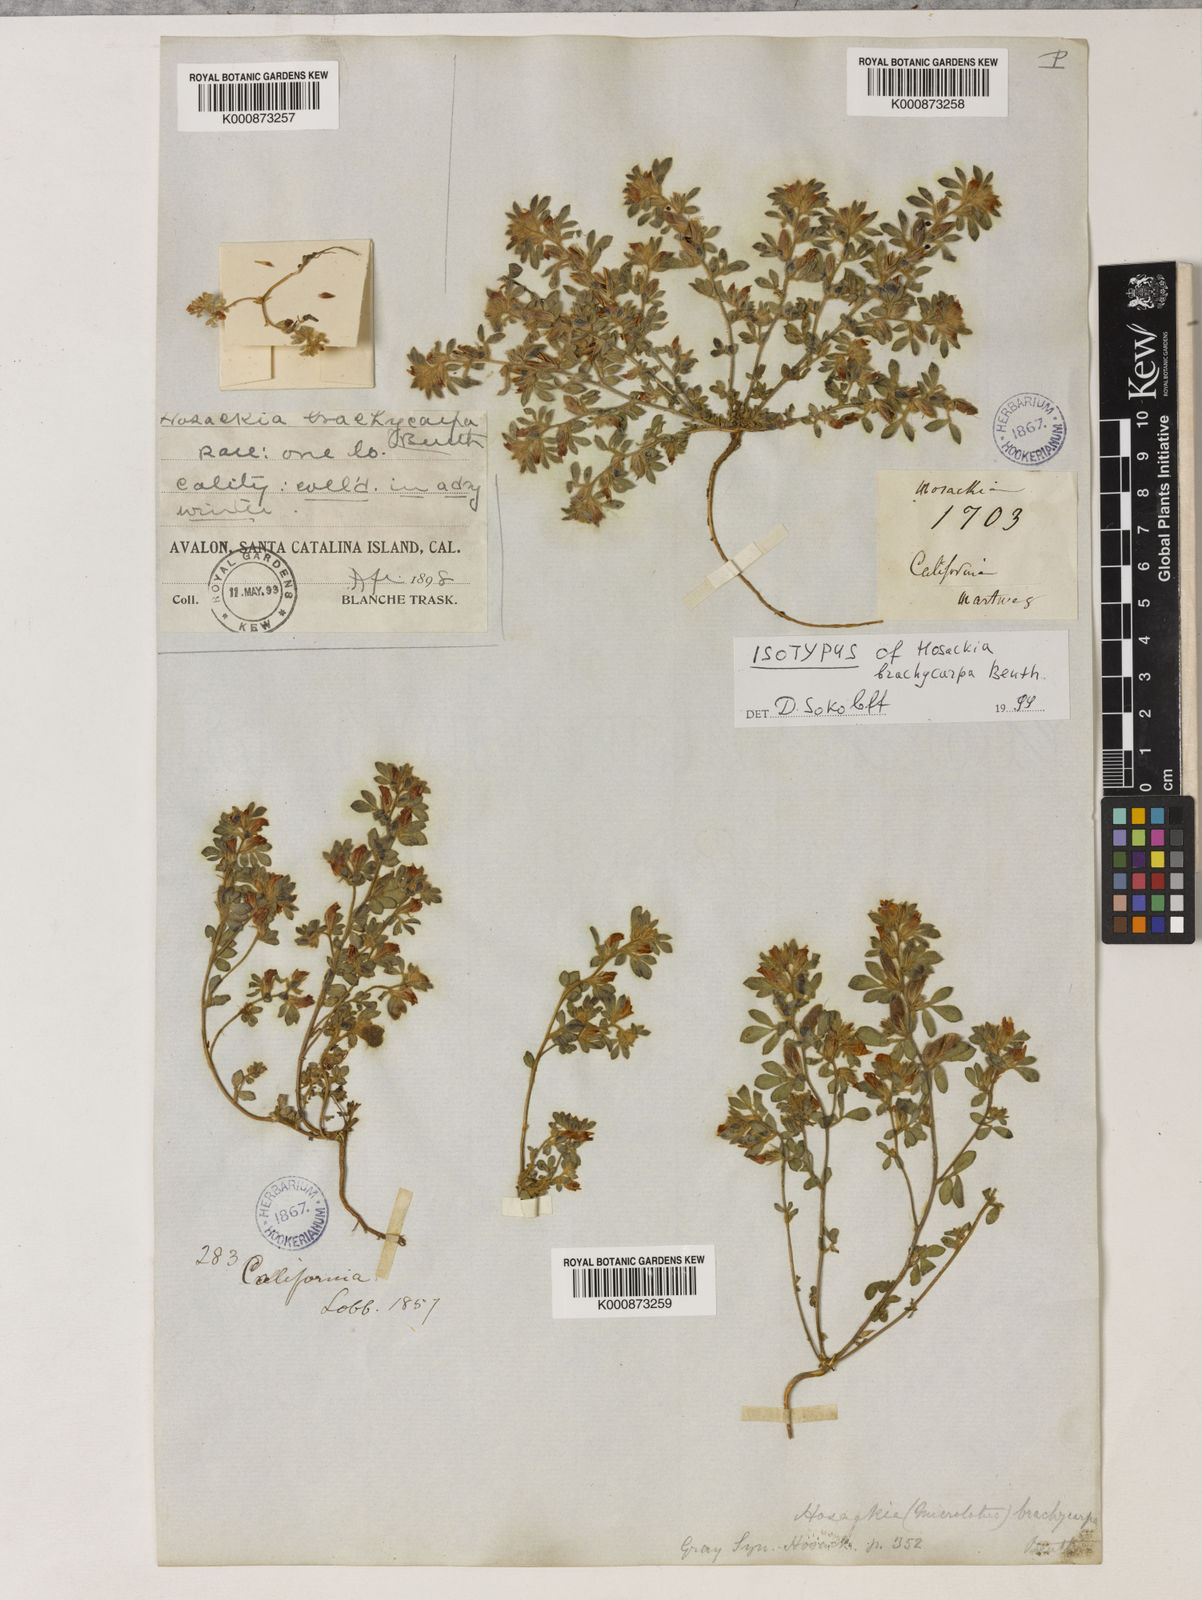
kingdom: Plantae
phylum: Tracheophyta
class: Magnoliopsida
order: Fabales
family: Fabaceae
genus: Acmispon
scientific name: Acmispon brachycarpus
